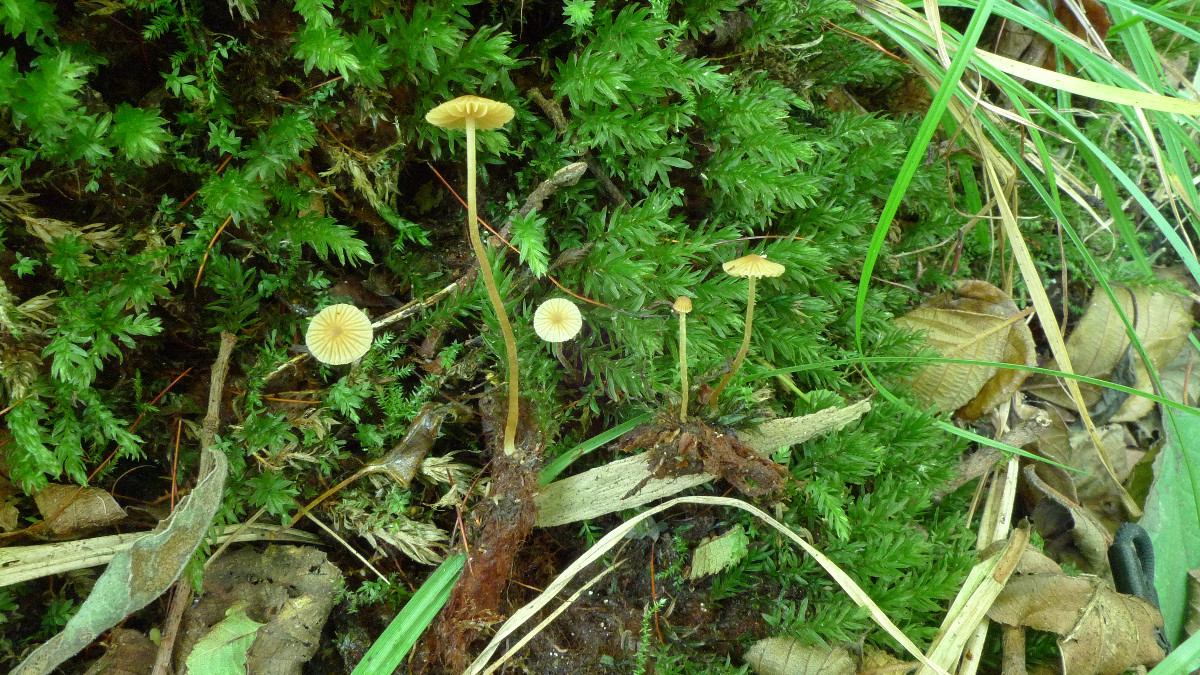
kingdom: Fungi
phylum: Basidiomycota
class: Agaricomycetes
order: Agaricales
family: Hymenogastraceae
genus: Galerina
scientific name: Galerina atkinsoniana
